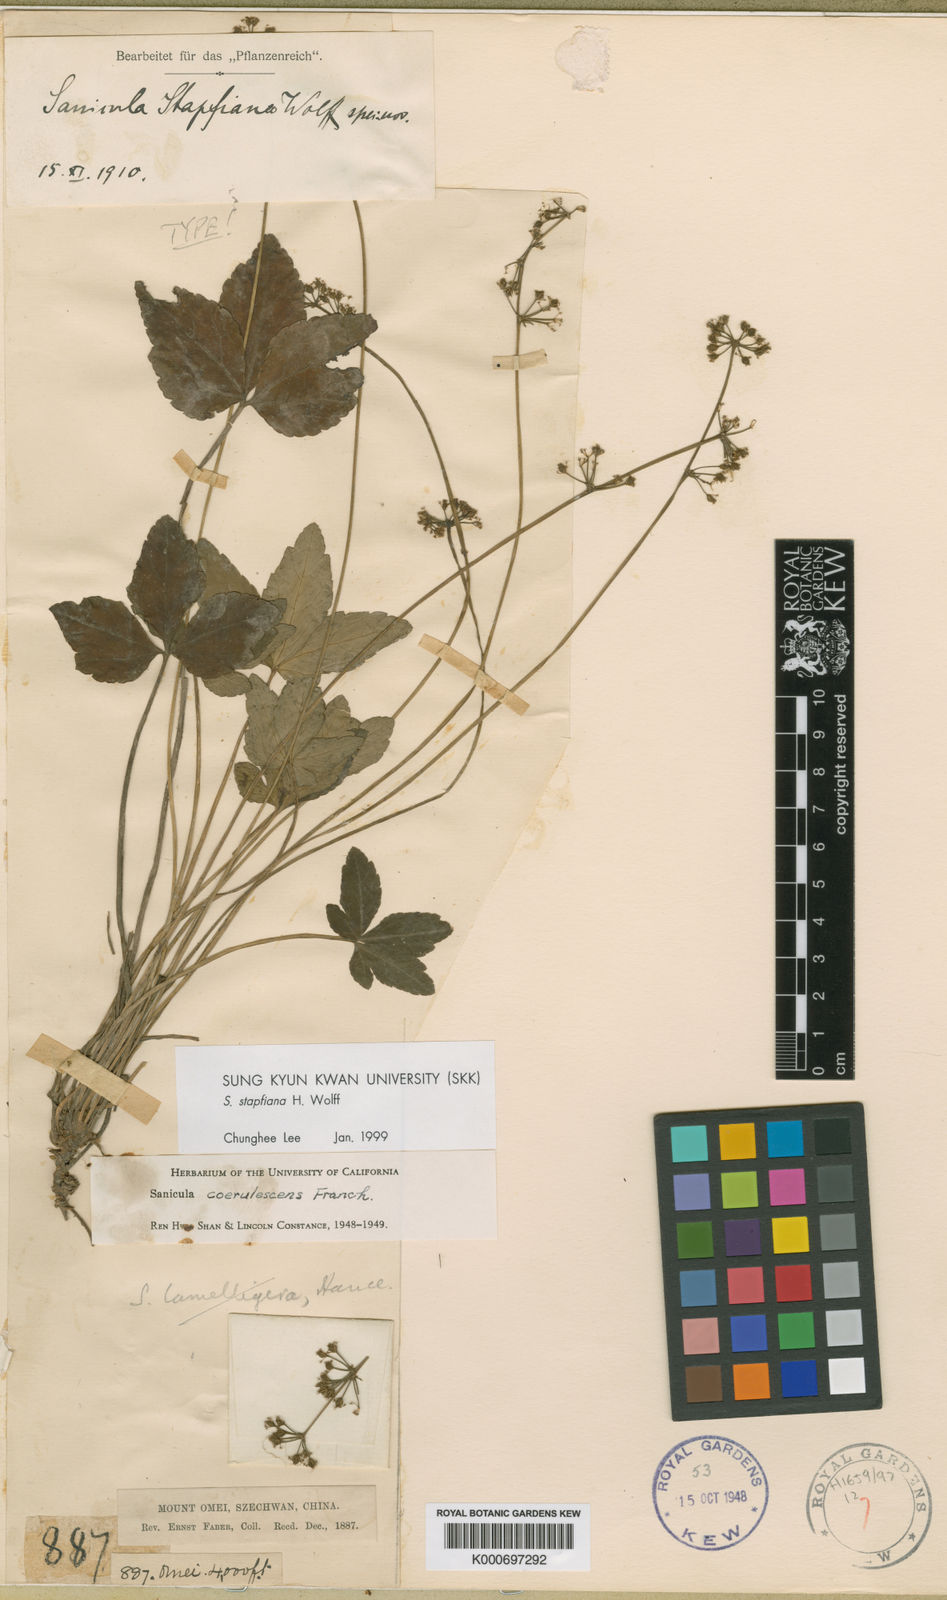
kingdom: Plantae
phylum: Tracheophyta
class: Magnoliopsida
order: Apiales
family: Apiaceae
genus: Sanicula
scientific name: Sanicula coerulescens
